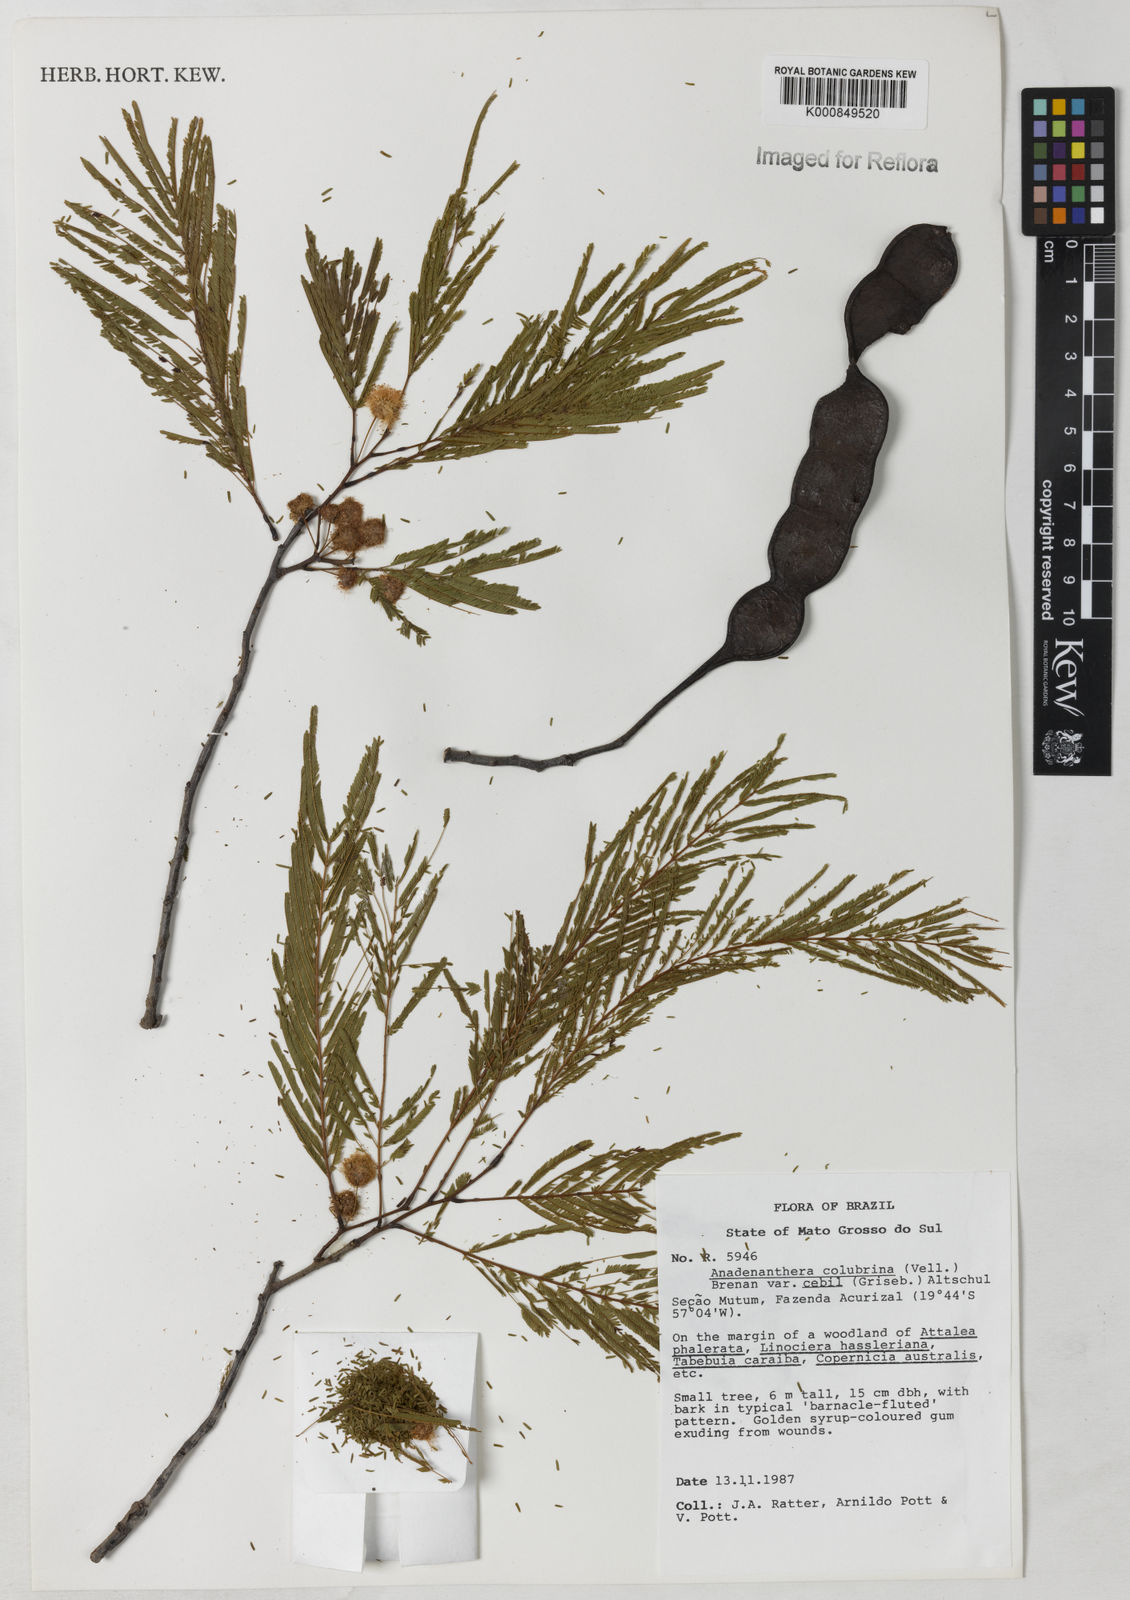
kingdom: Plantae
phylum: Tracheophyta
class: Magnoliopsida
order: Fabales
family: Fabaceae
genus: Anadenanthera
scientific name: Anadenanthera colubrina
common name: Curupay
